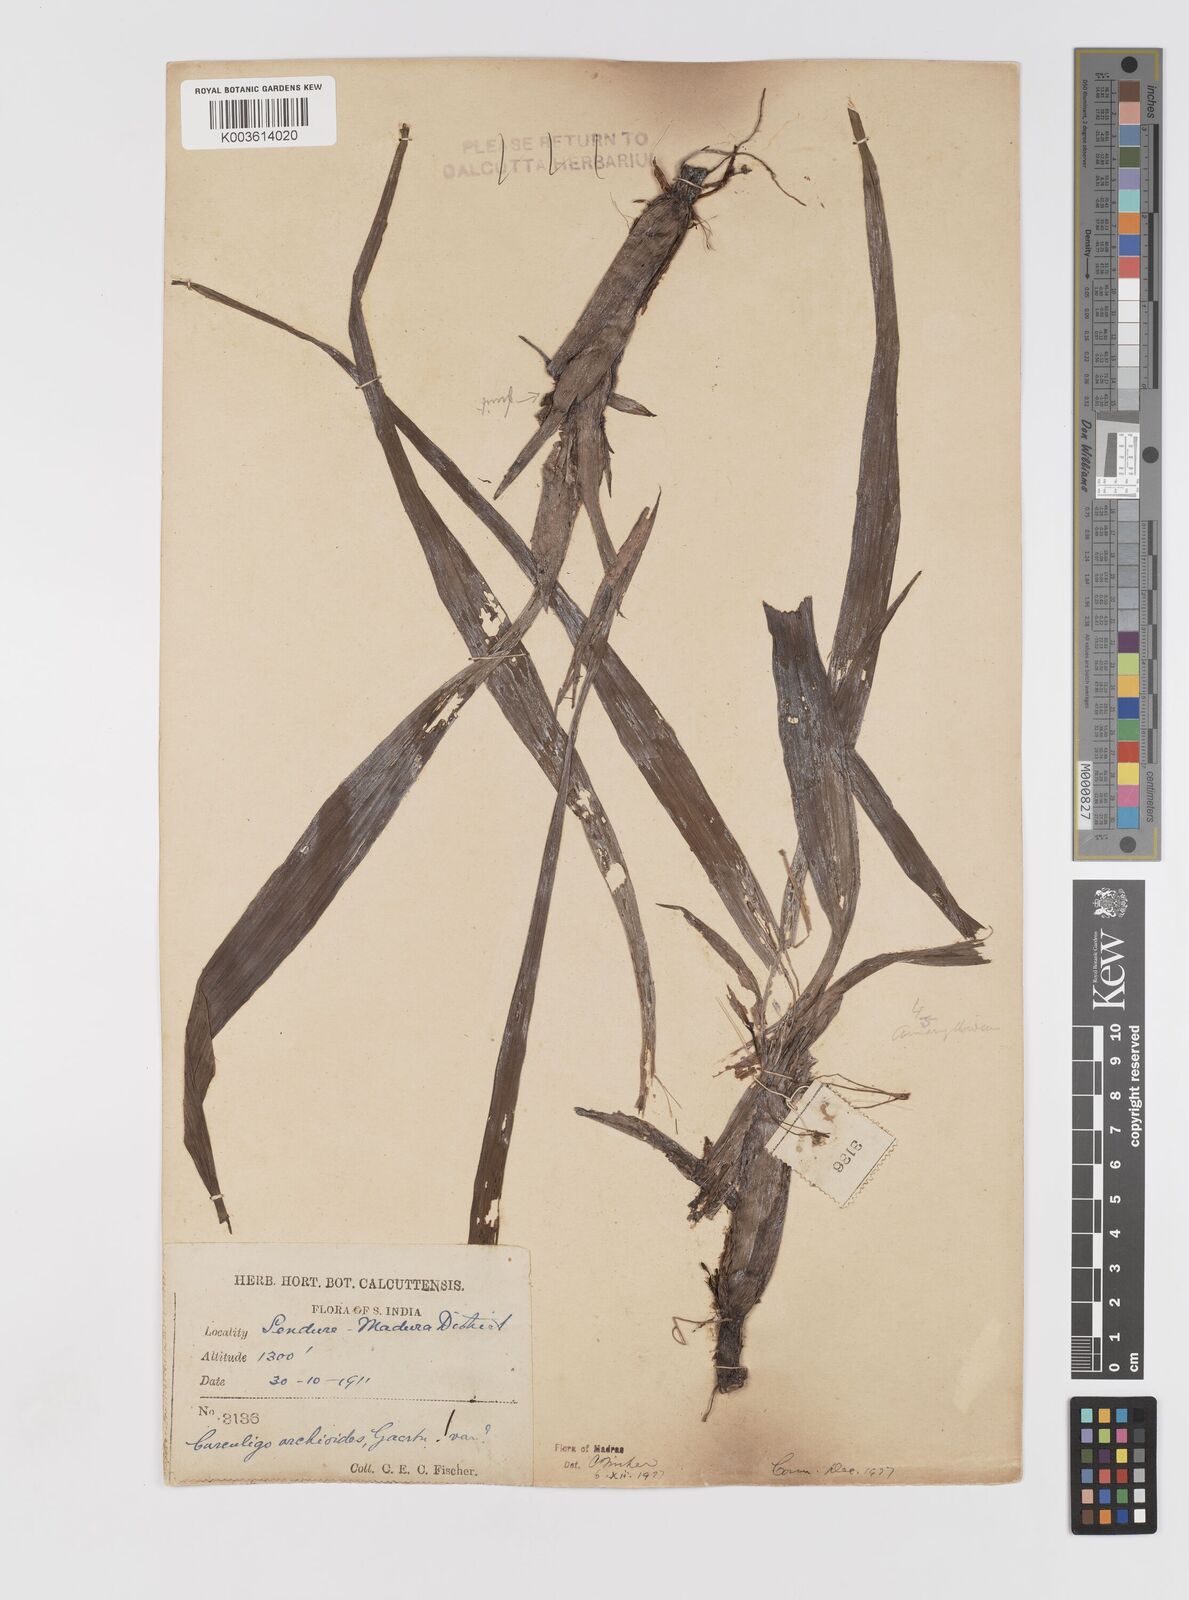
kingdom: Plantae
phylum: Tracheophyta
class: Liliopsida
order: Asparagales
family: Hypoxidaceae
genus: Curculigo
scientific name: Curculigo orchioides
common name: Golden eye-grass
